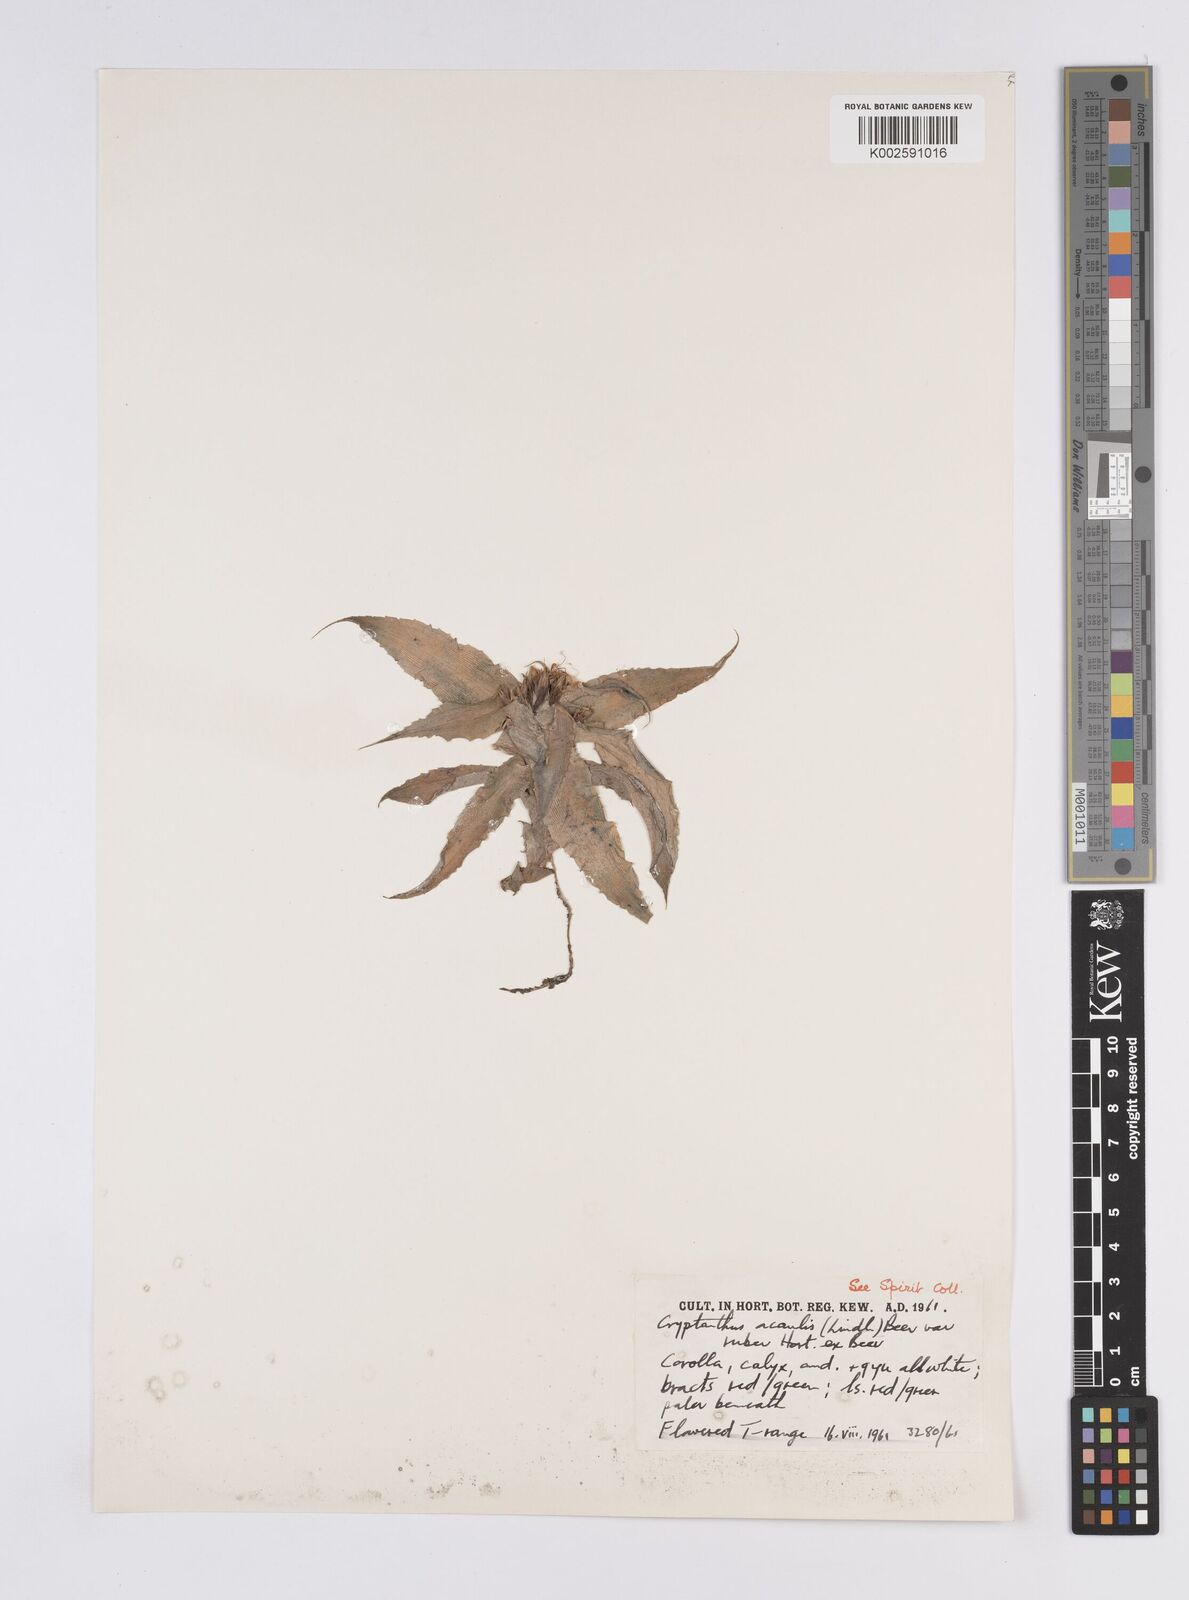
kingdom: Plantae
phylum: Tracheophyta
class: Liliopsida
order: Poales
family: Bromeliaceae
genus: Cryptanthus
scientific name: Cryptanthus acaulis
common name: Starfishplant
